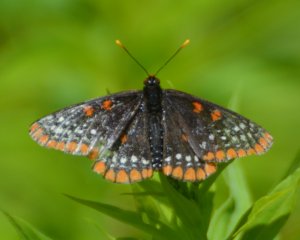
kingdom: Animalia
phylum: Arthropoda
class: Insecta
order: Lepidoptera
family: Nymphalidae
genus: Euphydryas
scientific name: Euphydryas phaeton
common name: Baltimore Checkerspot
